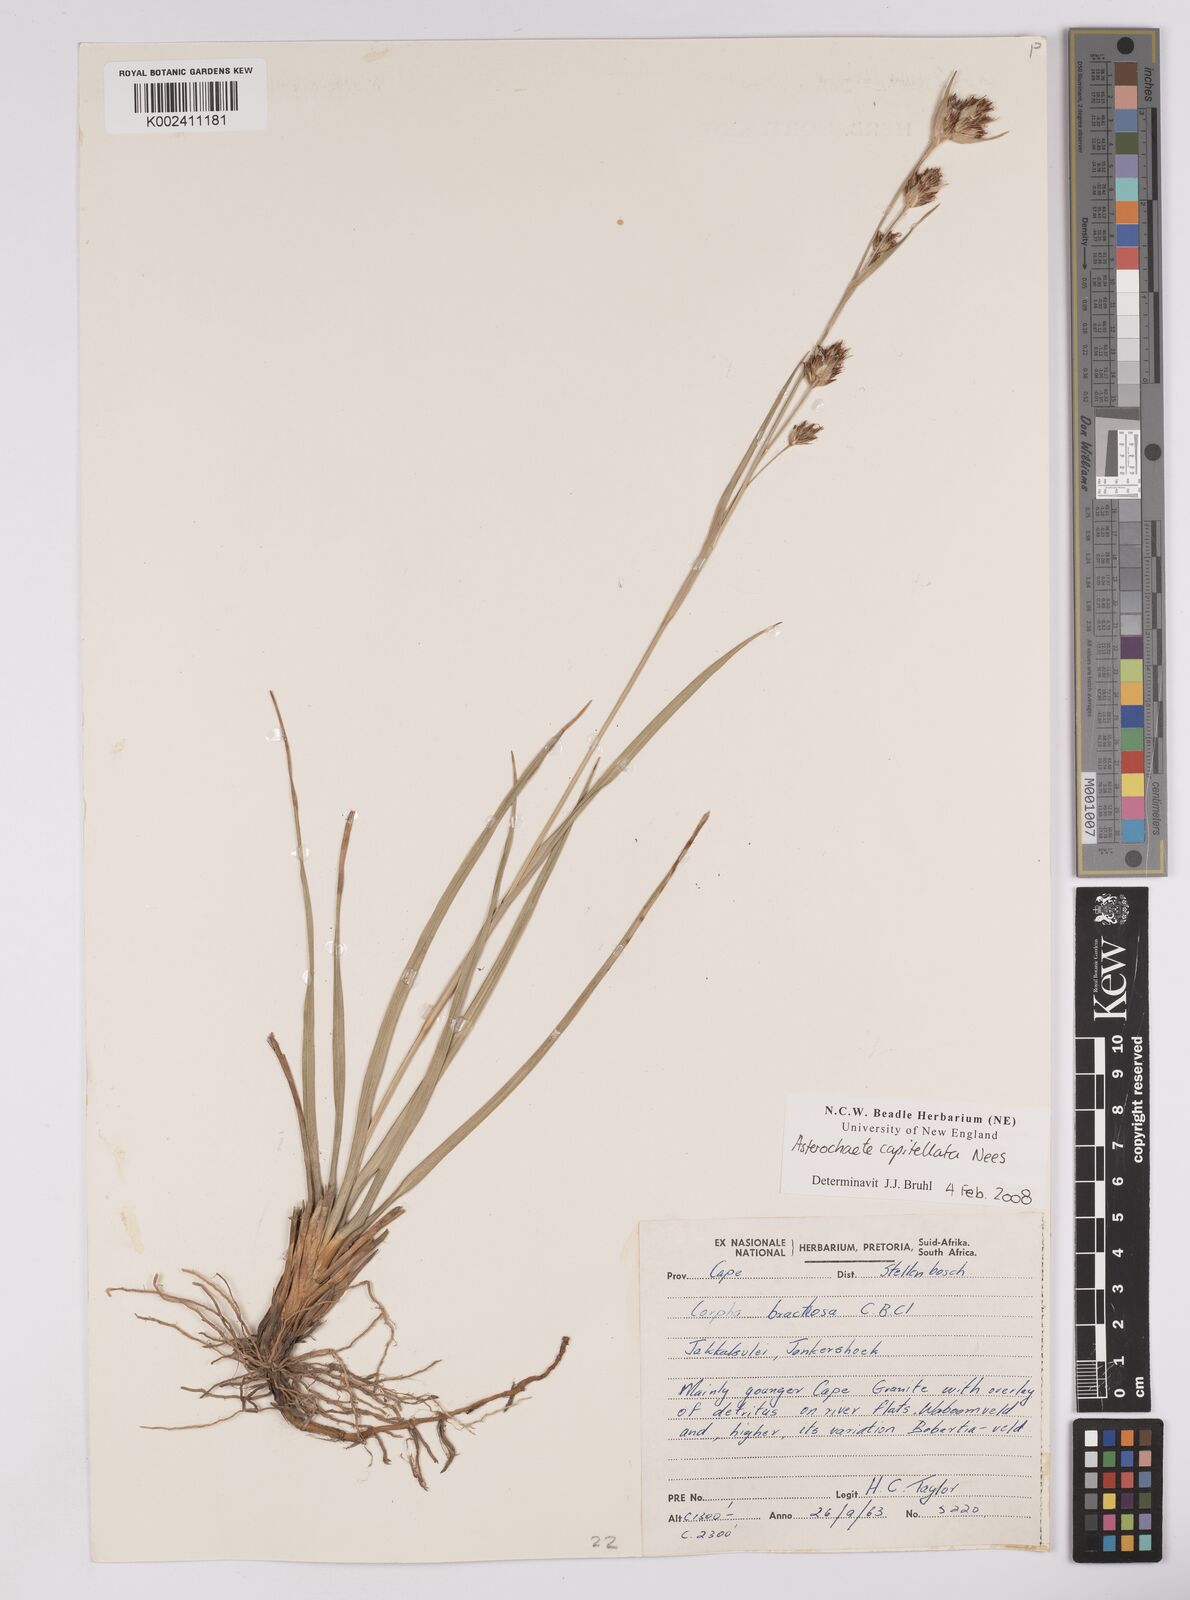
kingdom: Plantae
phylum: Tracheophyta
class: Liliopsida
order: Poales
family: Cyperaceae
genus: Carpha
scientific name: Carpha capitellata
